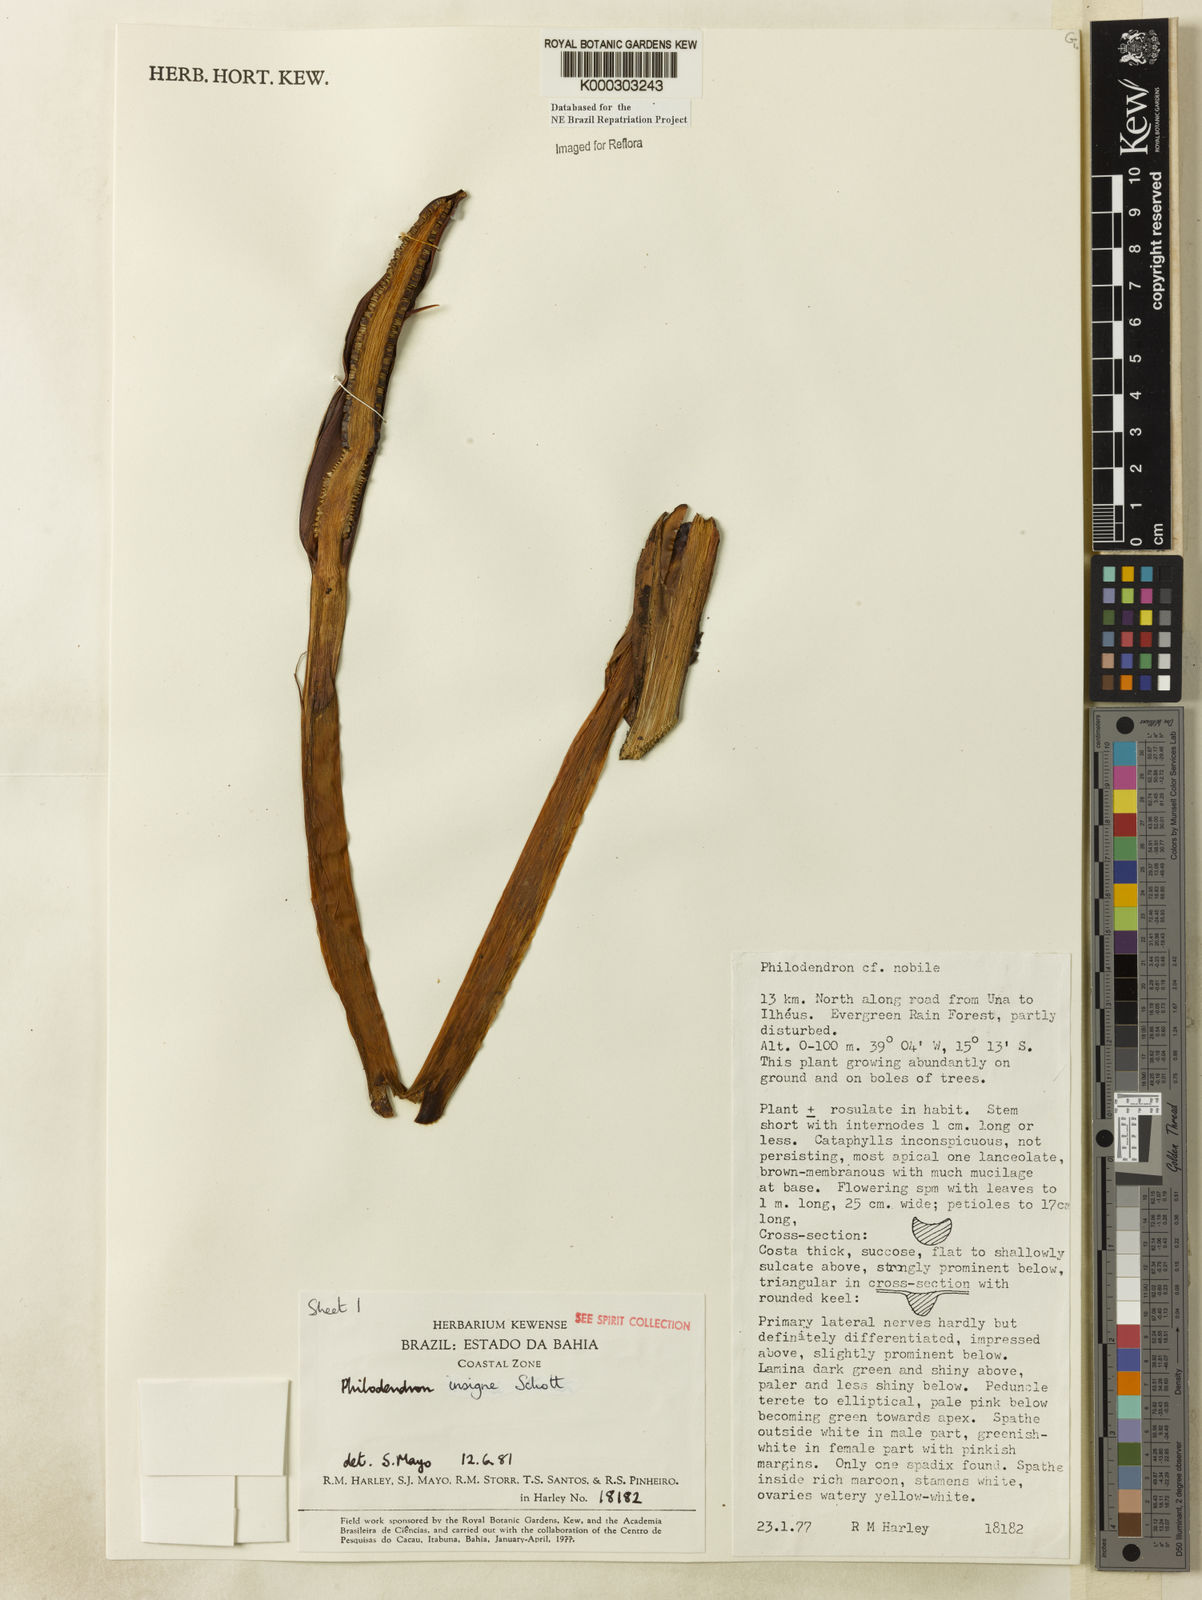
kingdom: Plantae
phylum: Tracheophyta
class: Liliopsida
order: Alismatales
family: Araceae
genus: Philodendron
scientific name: Philodendron insigne
